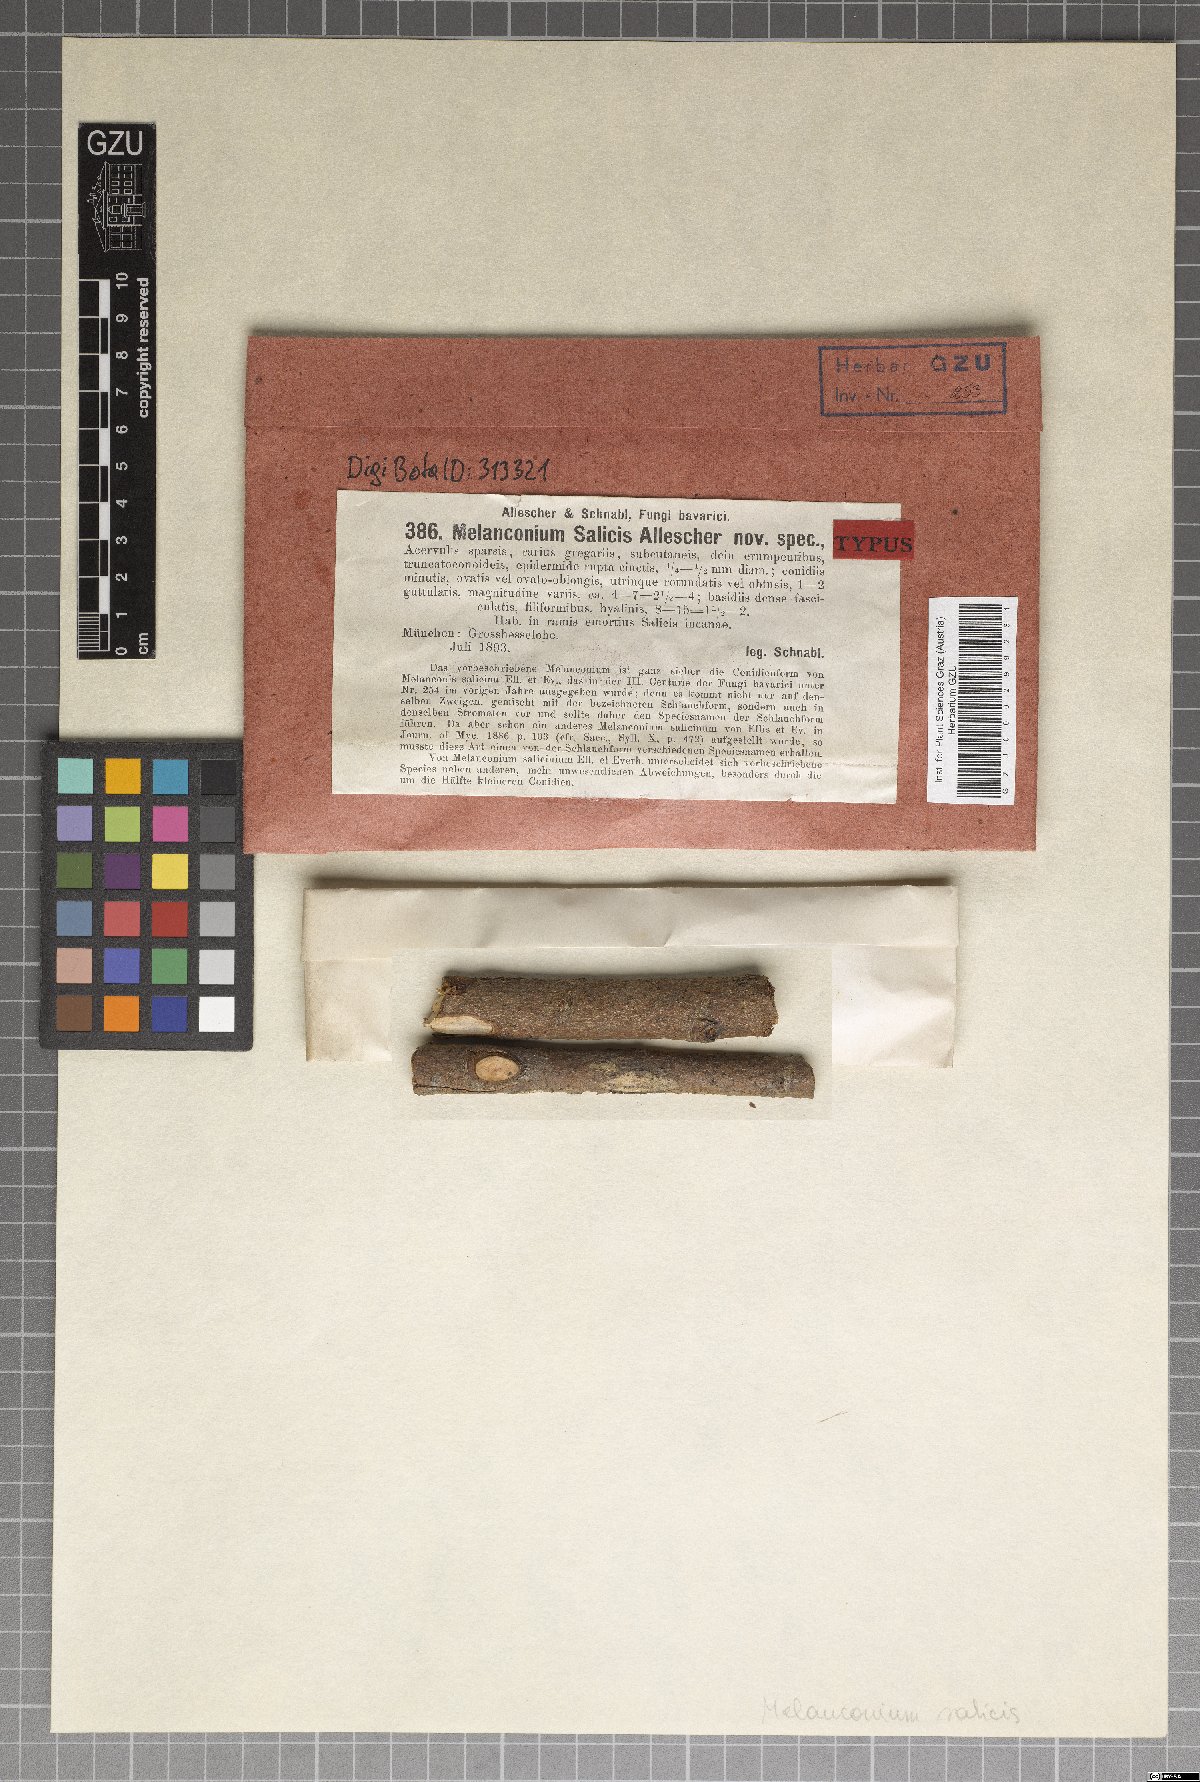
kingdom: Fungi
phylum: Ascomycota
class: Sordariomycetes
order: Diaporthales
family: Melanconidaceae
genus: Melanconium
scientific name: Melanconium salicinum
